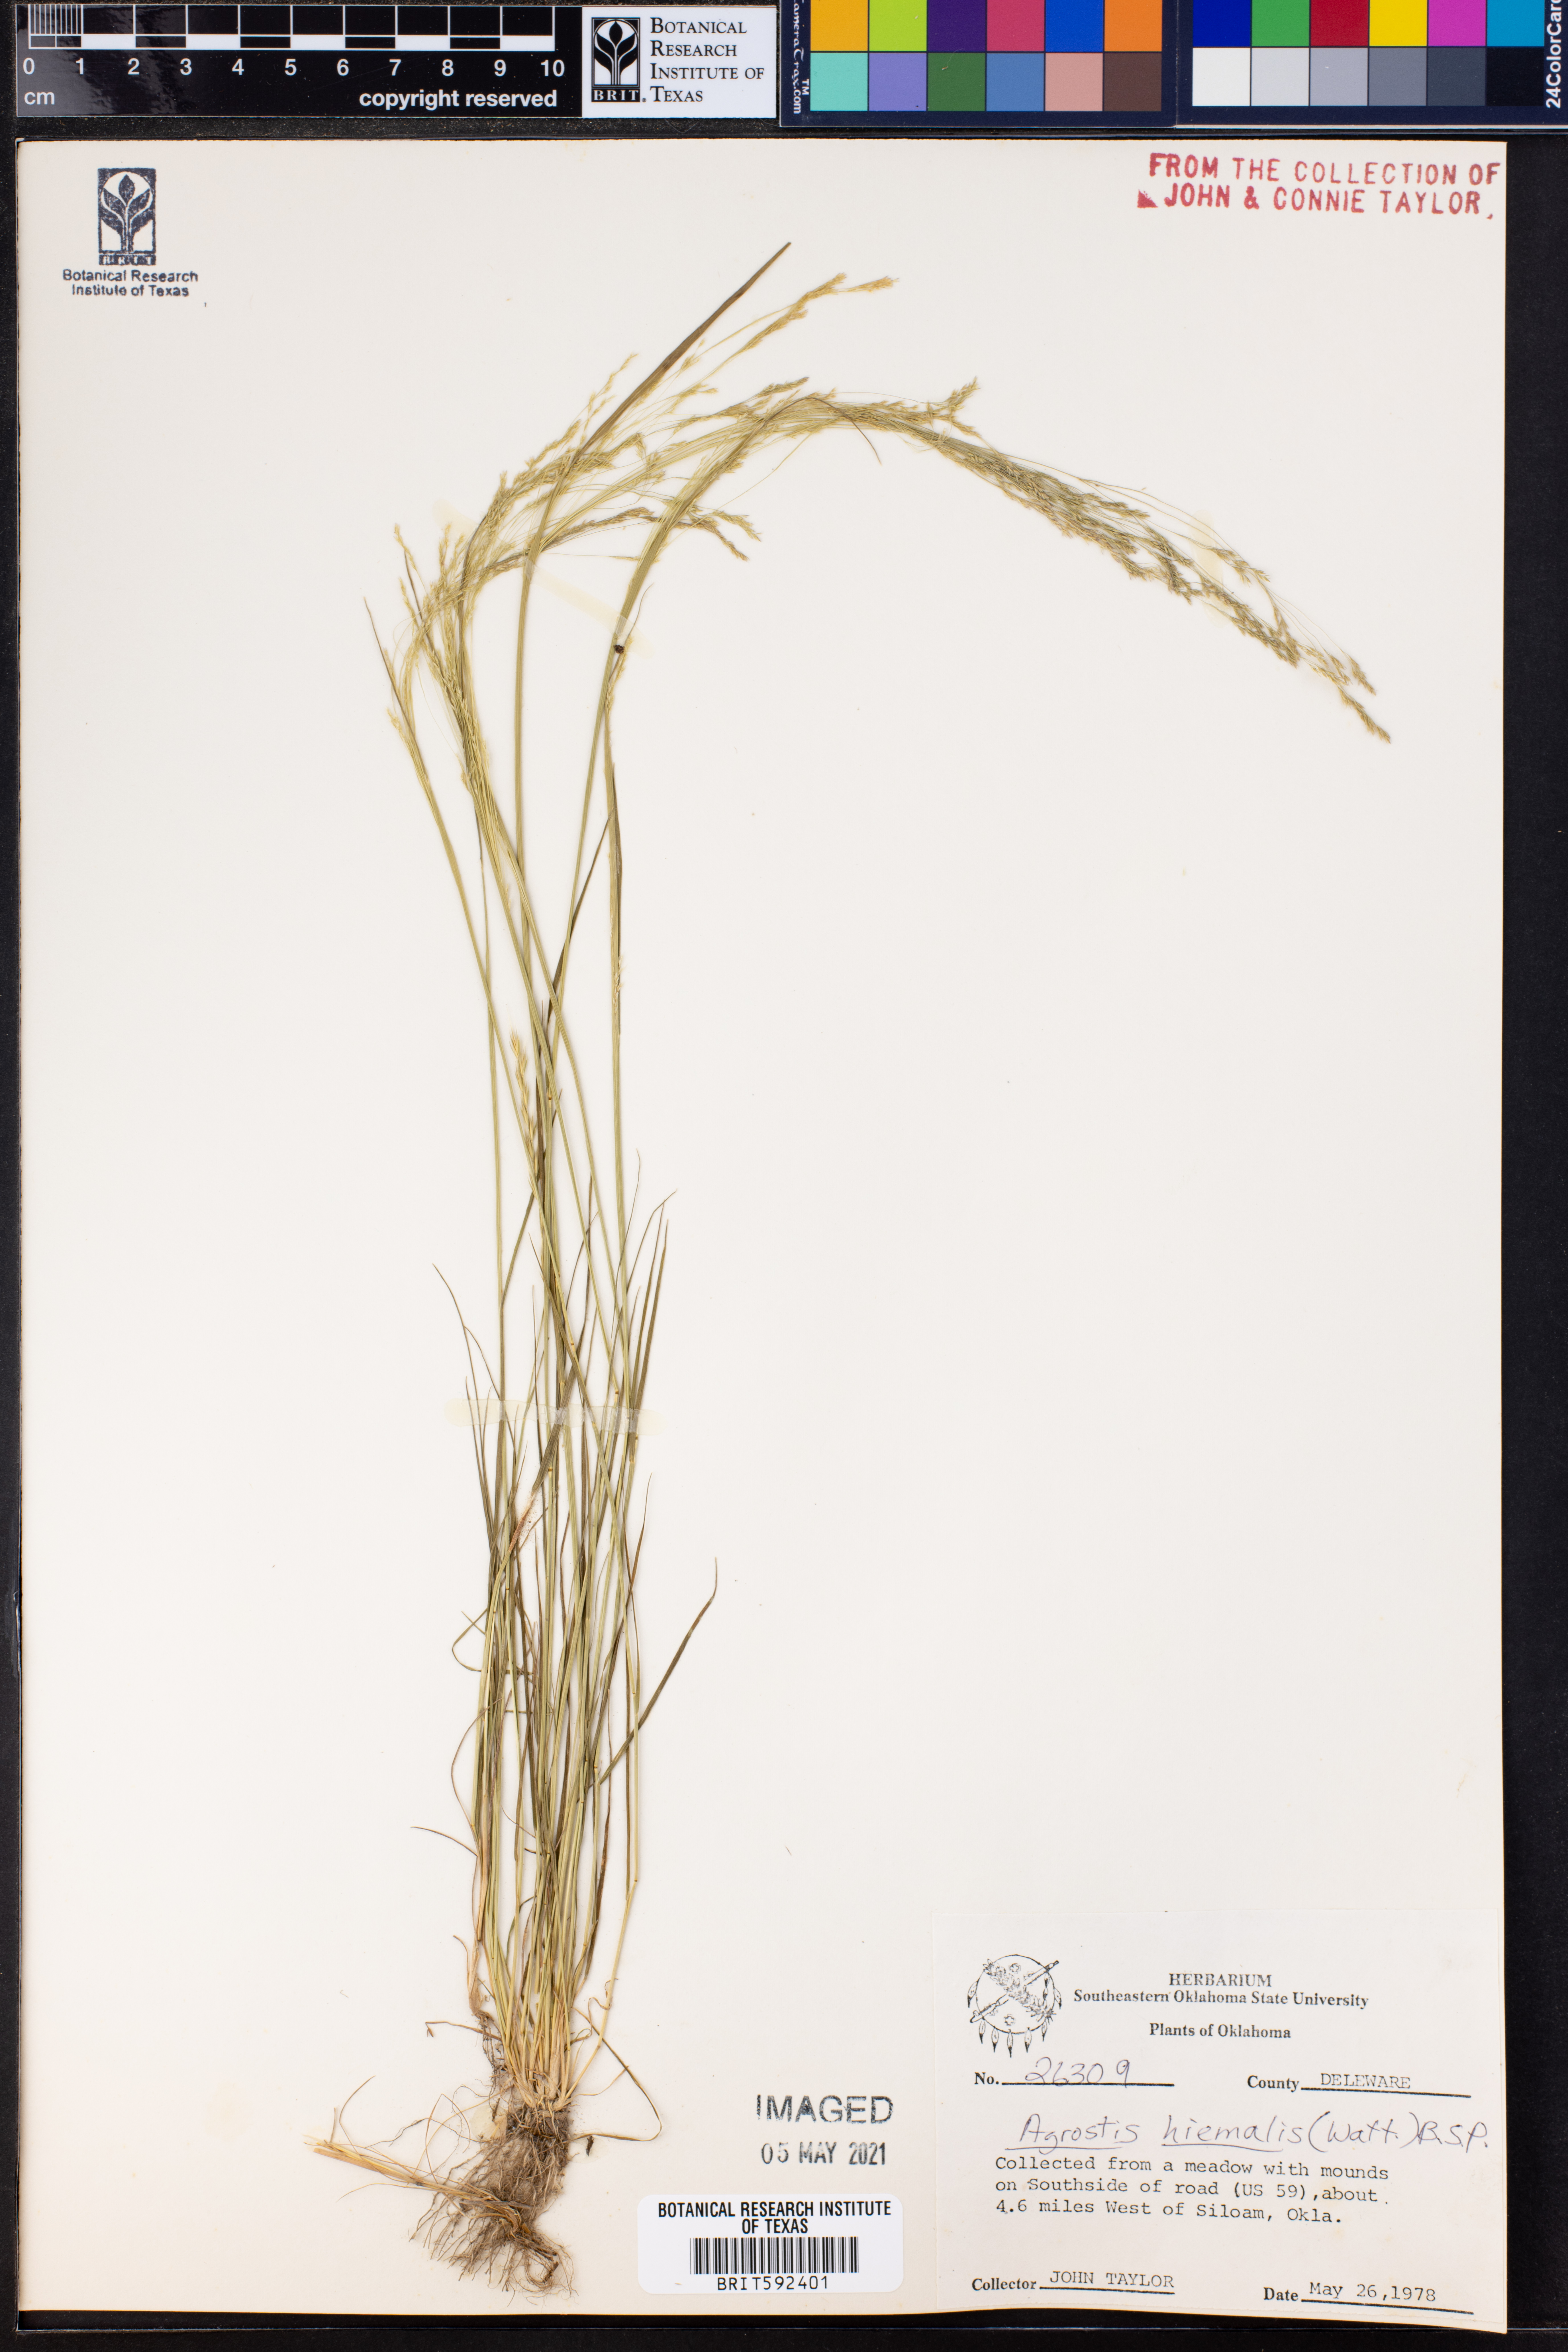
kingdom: Plantae
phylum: Tracheophyta
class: Liliopsida
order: Poales
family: Poaceae
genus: Agrostis
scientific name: Agrostis hyemalis
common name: Small bent
